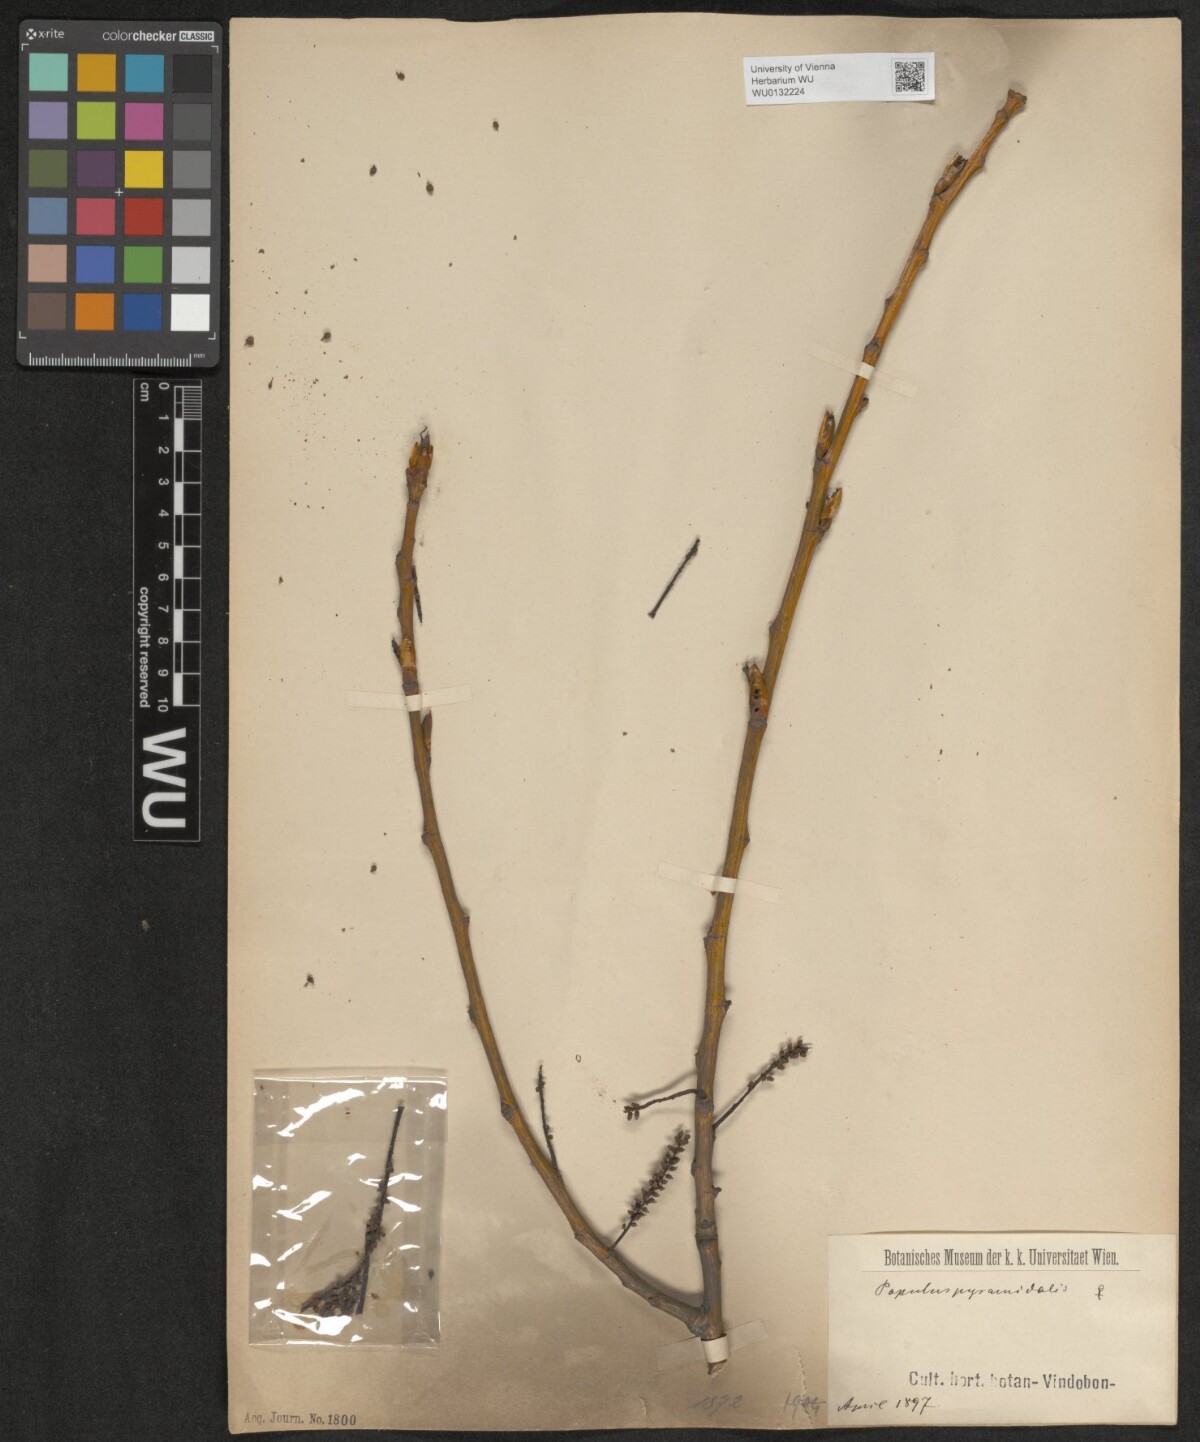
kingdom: Plantae
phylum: Tracheophyta
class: Magnoliopsida
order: Malpighiales
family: Salicaceae
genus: Populus
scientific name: Populus nigra
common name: Black poplar
